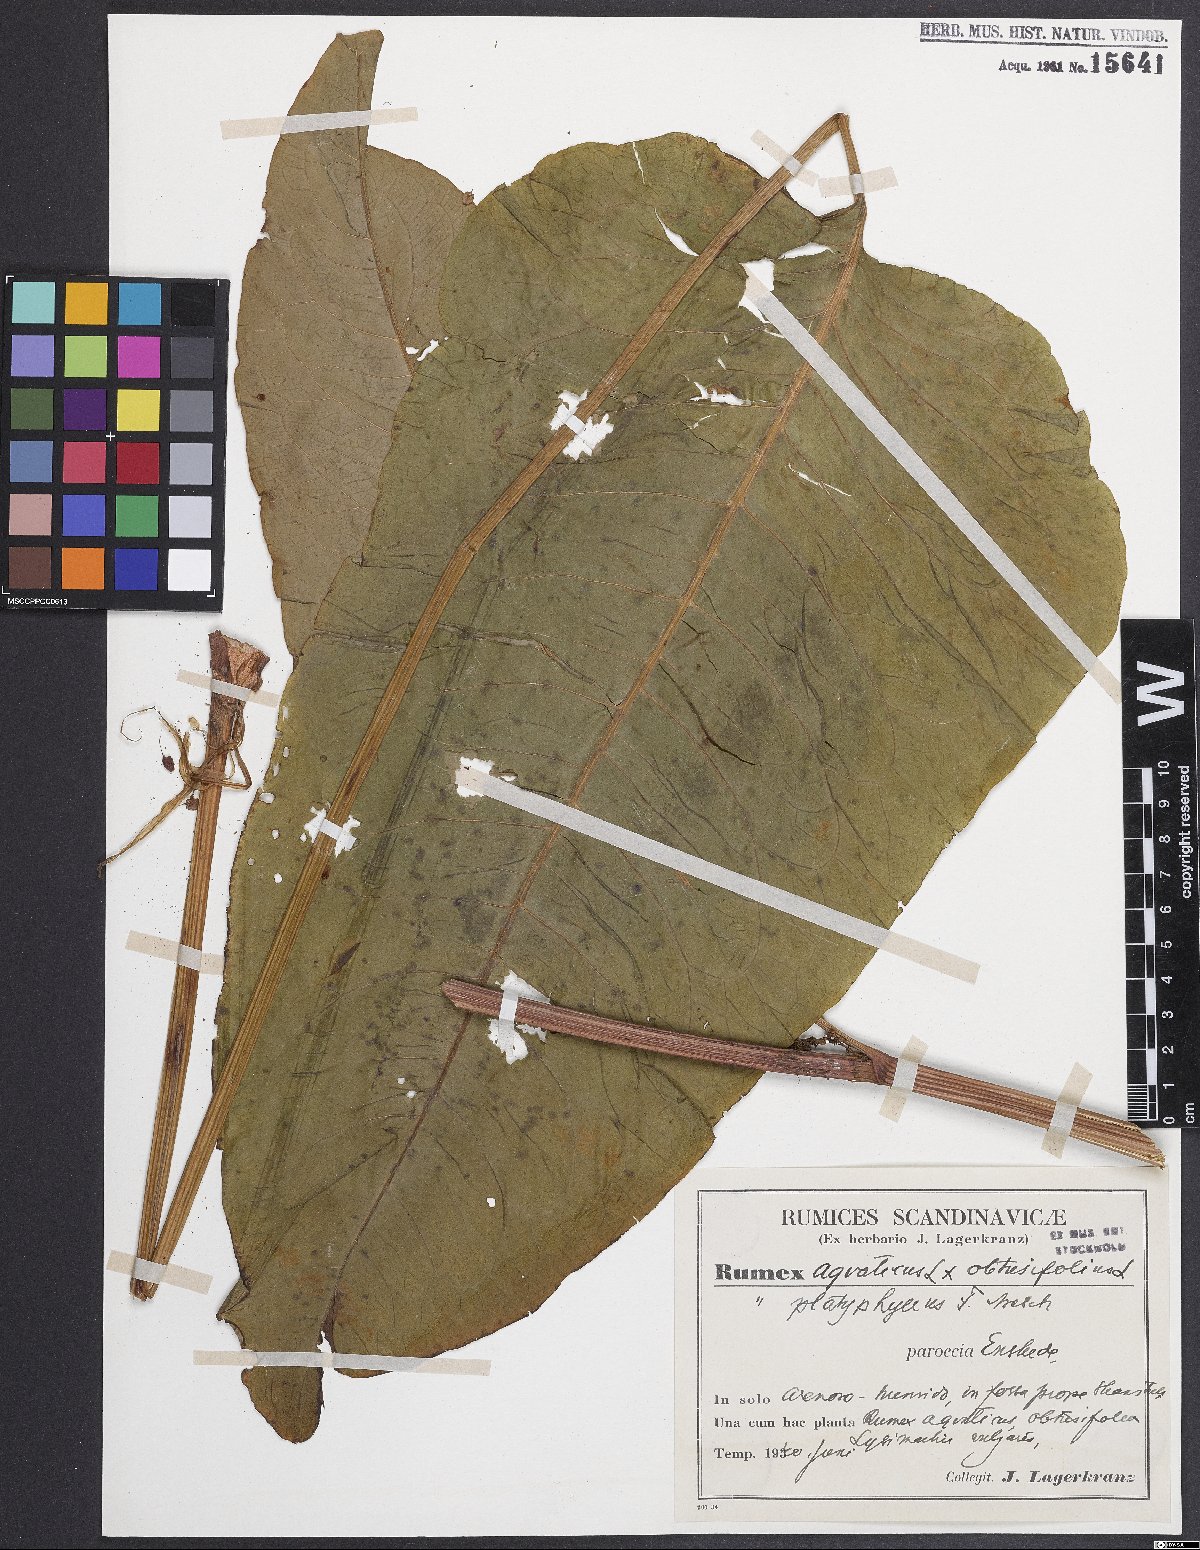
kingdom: Plantae
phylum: Tracheophyta
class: Magnoliopsida
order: Caryophyllales
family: Polygonaceae
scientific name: Polygonaceae
